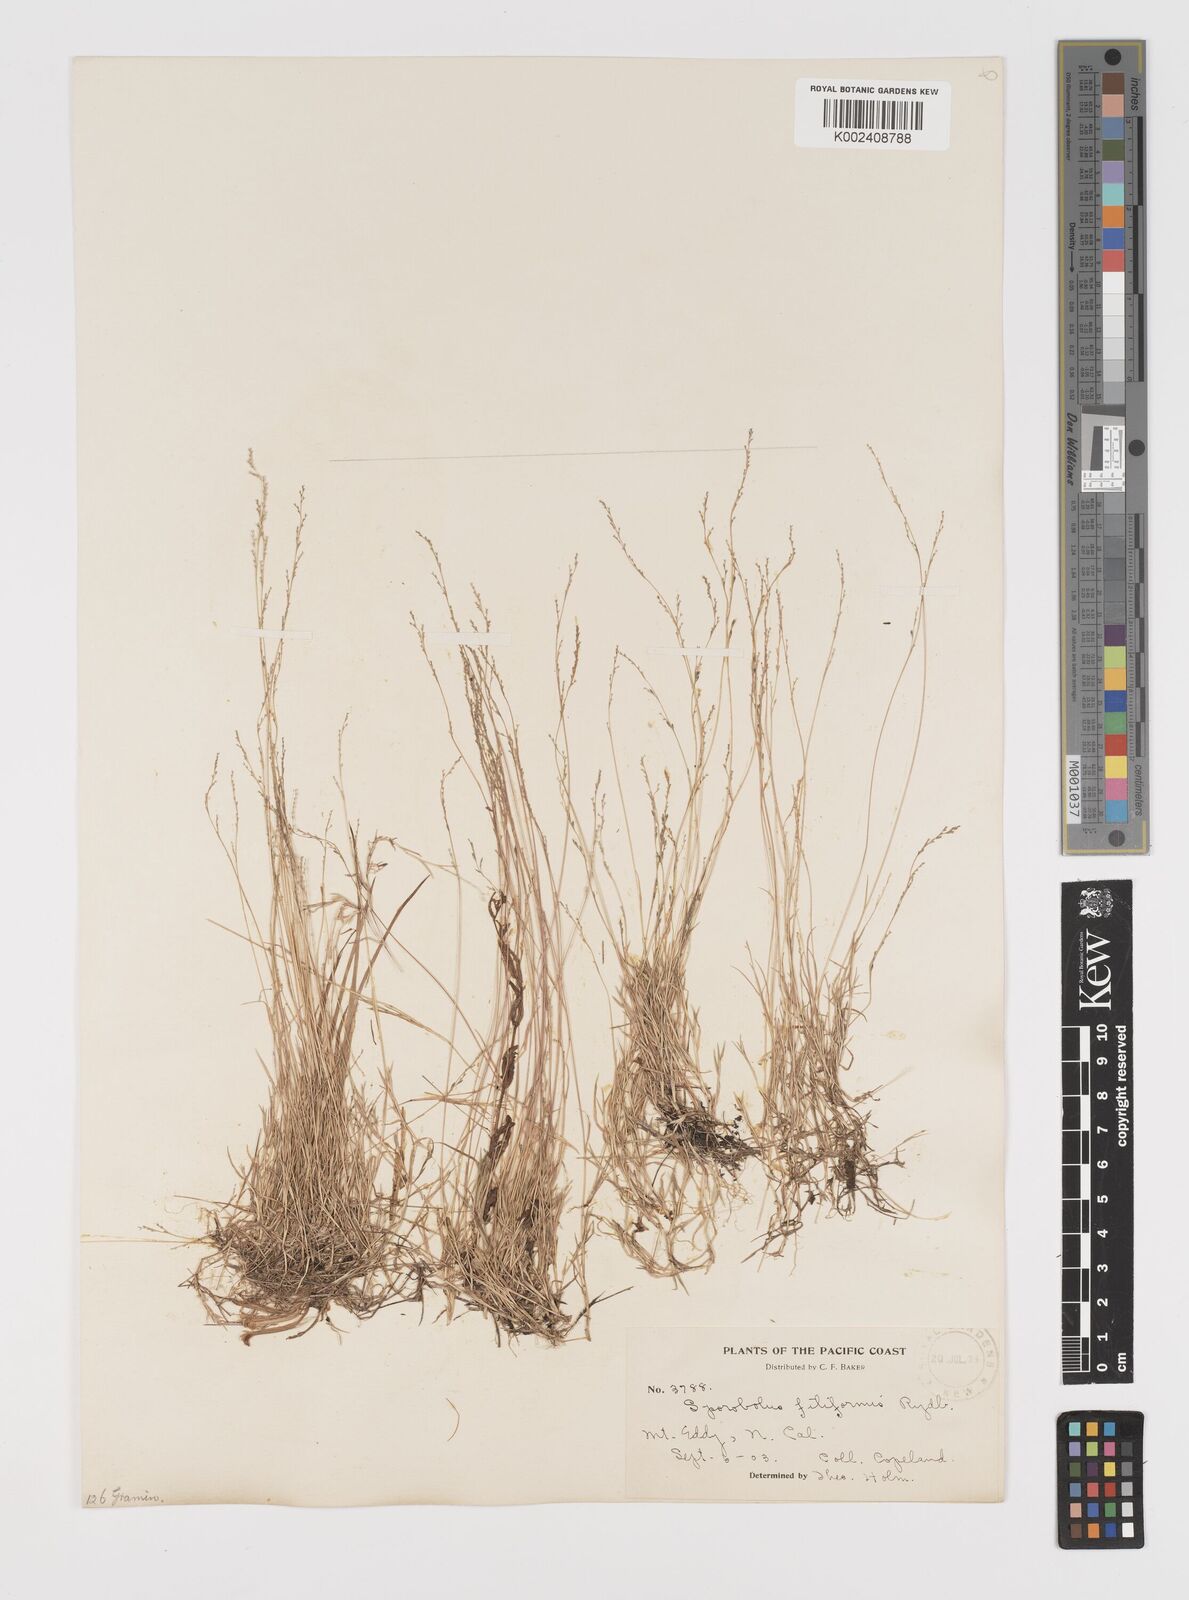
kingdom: Plantae
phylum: Tracheophyta
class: Liliopsida
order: Poales
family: Poaceae
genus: Leptochloa
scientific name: Leptochloa mucronata
